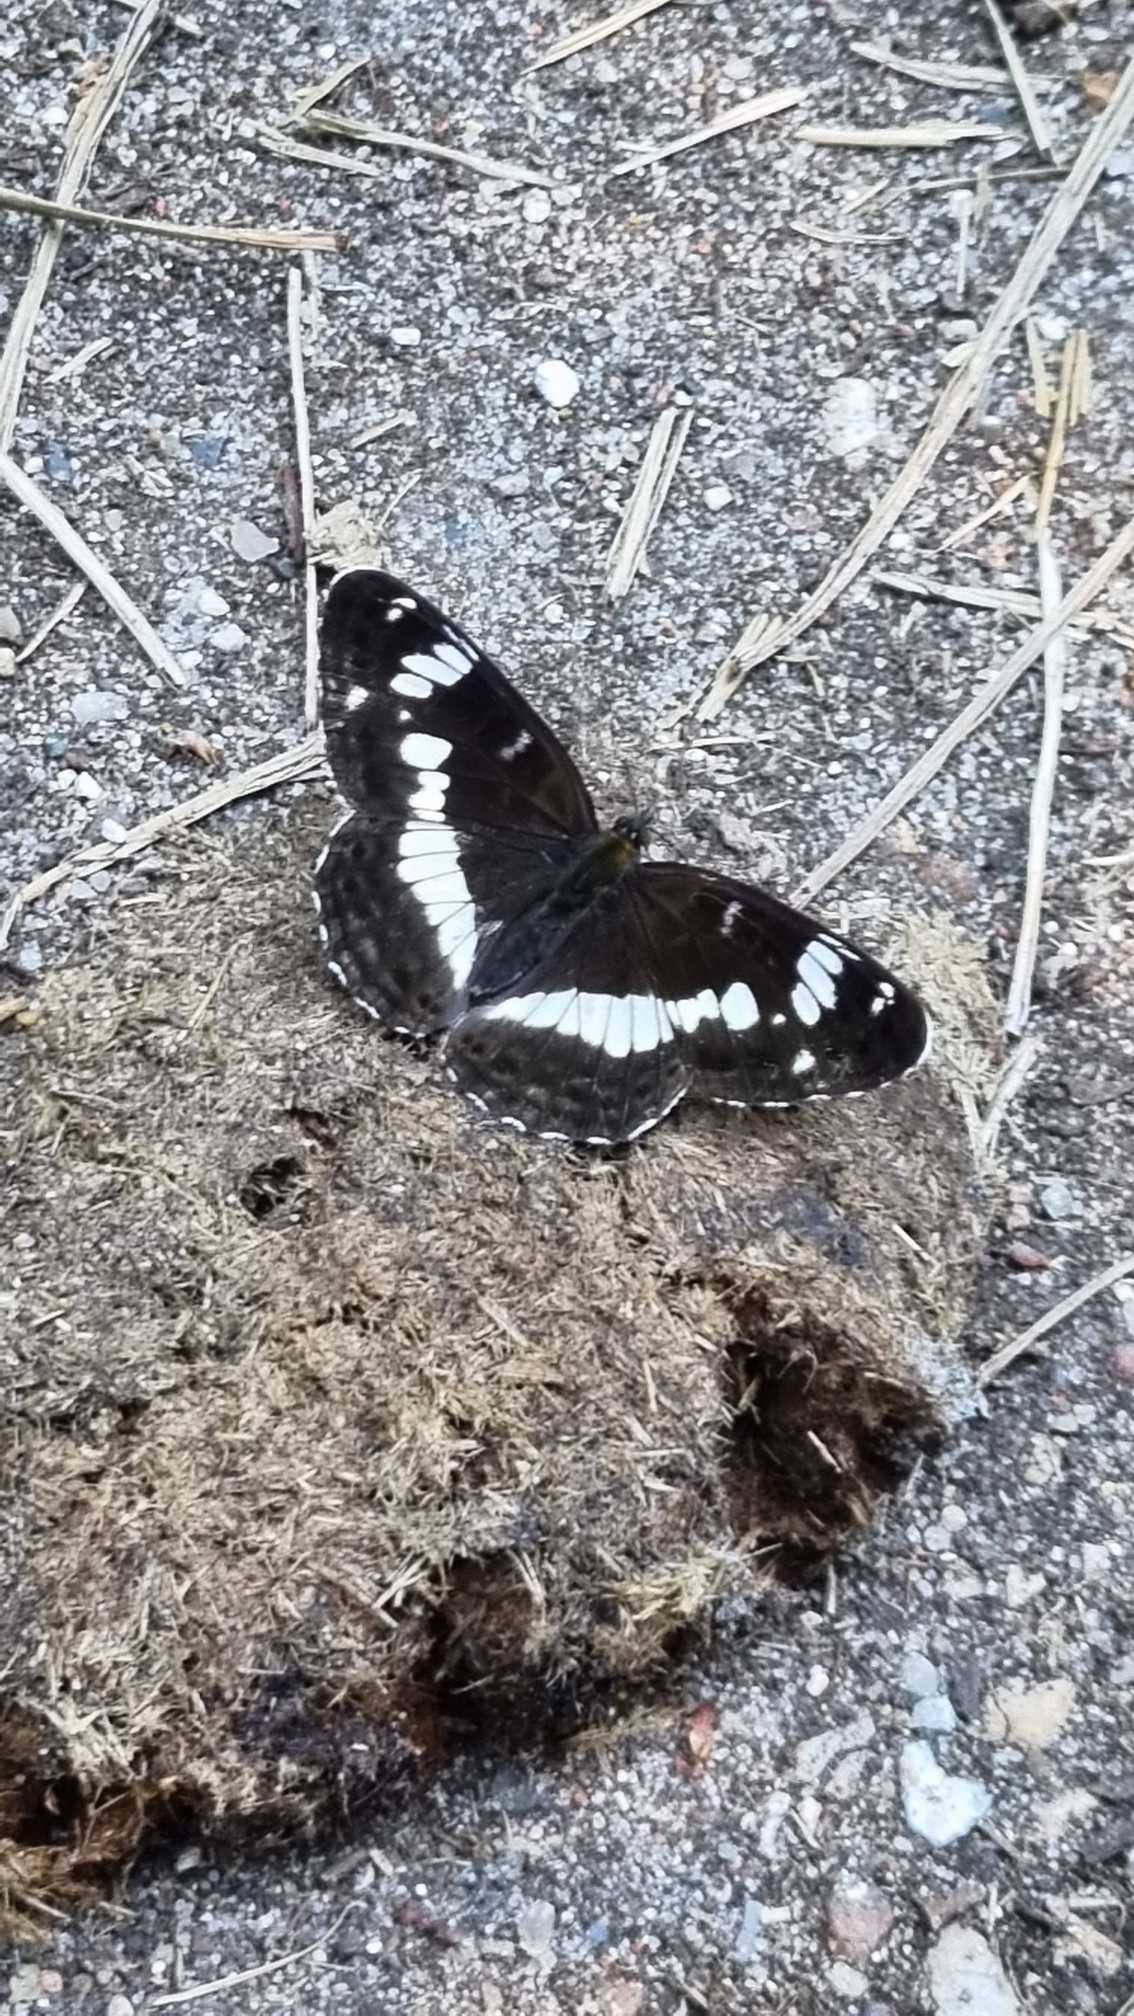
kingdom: Animalia
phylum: Arthropoda
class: Insecta
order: Lepidoptera
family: Nymphalidae
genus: Ladoga
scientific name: Ladoga camilla
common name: Hvid admiral
